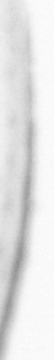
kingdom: Animalia
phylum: Chordata
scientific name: Chordata
